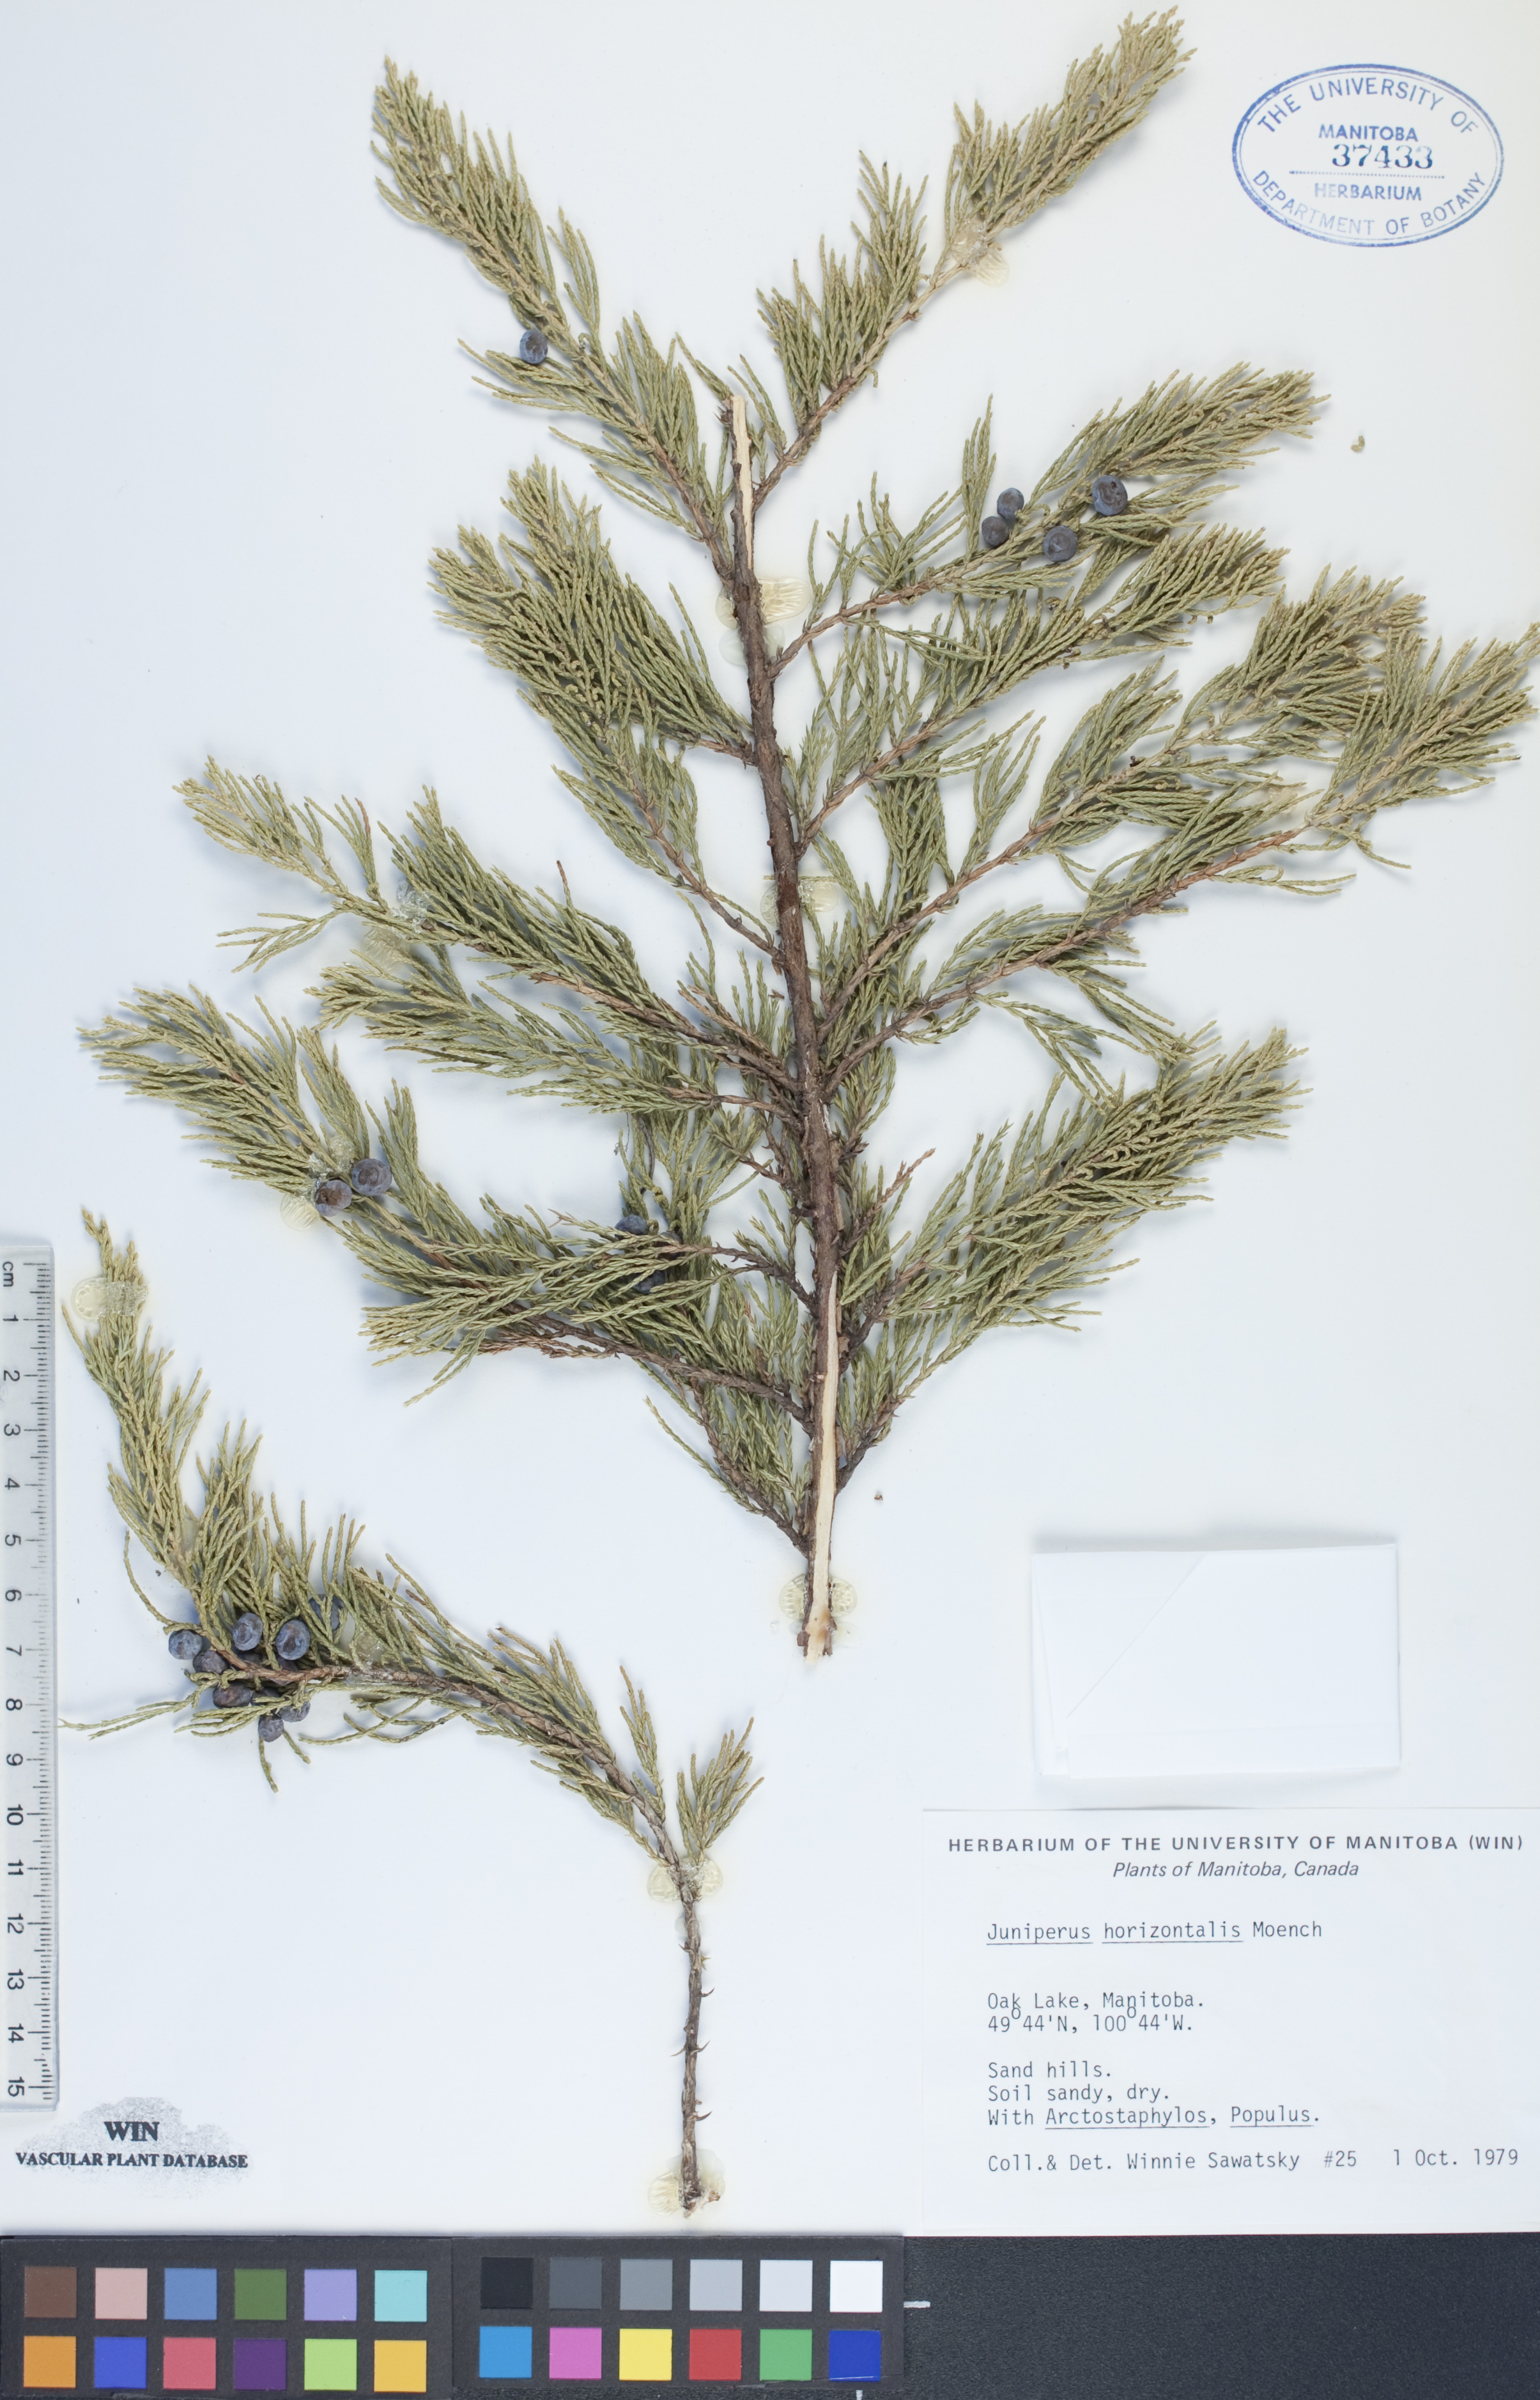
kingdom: Plantae
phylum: Tracheophyta
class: Pinopsida
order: Pinales
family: Cupressaceae
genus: Juniperus
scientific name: Juniperus horizontalis
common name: Creeping juniper
